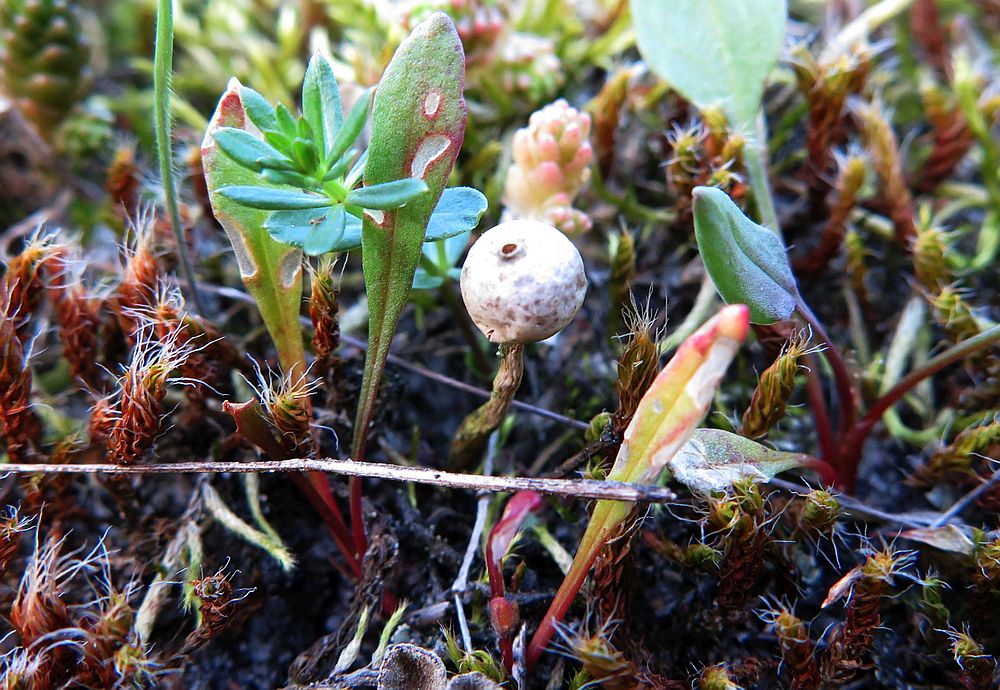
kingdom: Fungi
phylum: Basidiomycota
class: Agaricomycetes
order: Polyporales
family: Polyporaceae
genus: Lentinus
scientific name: Lentinus brumalis
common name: vinter-stilkporesvamp
